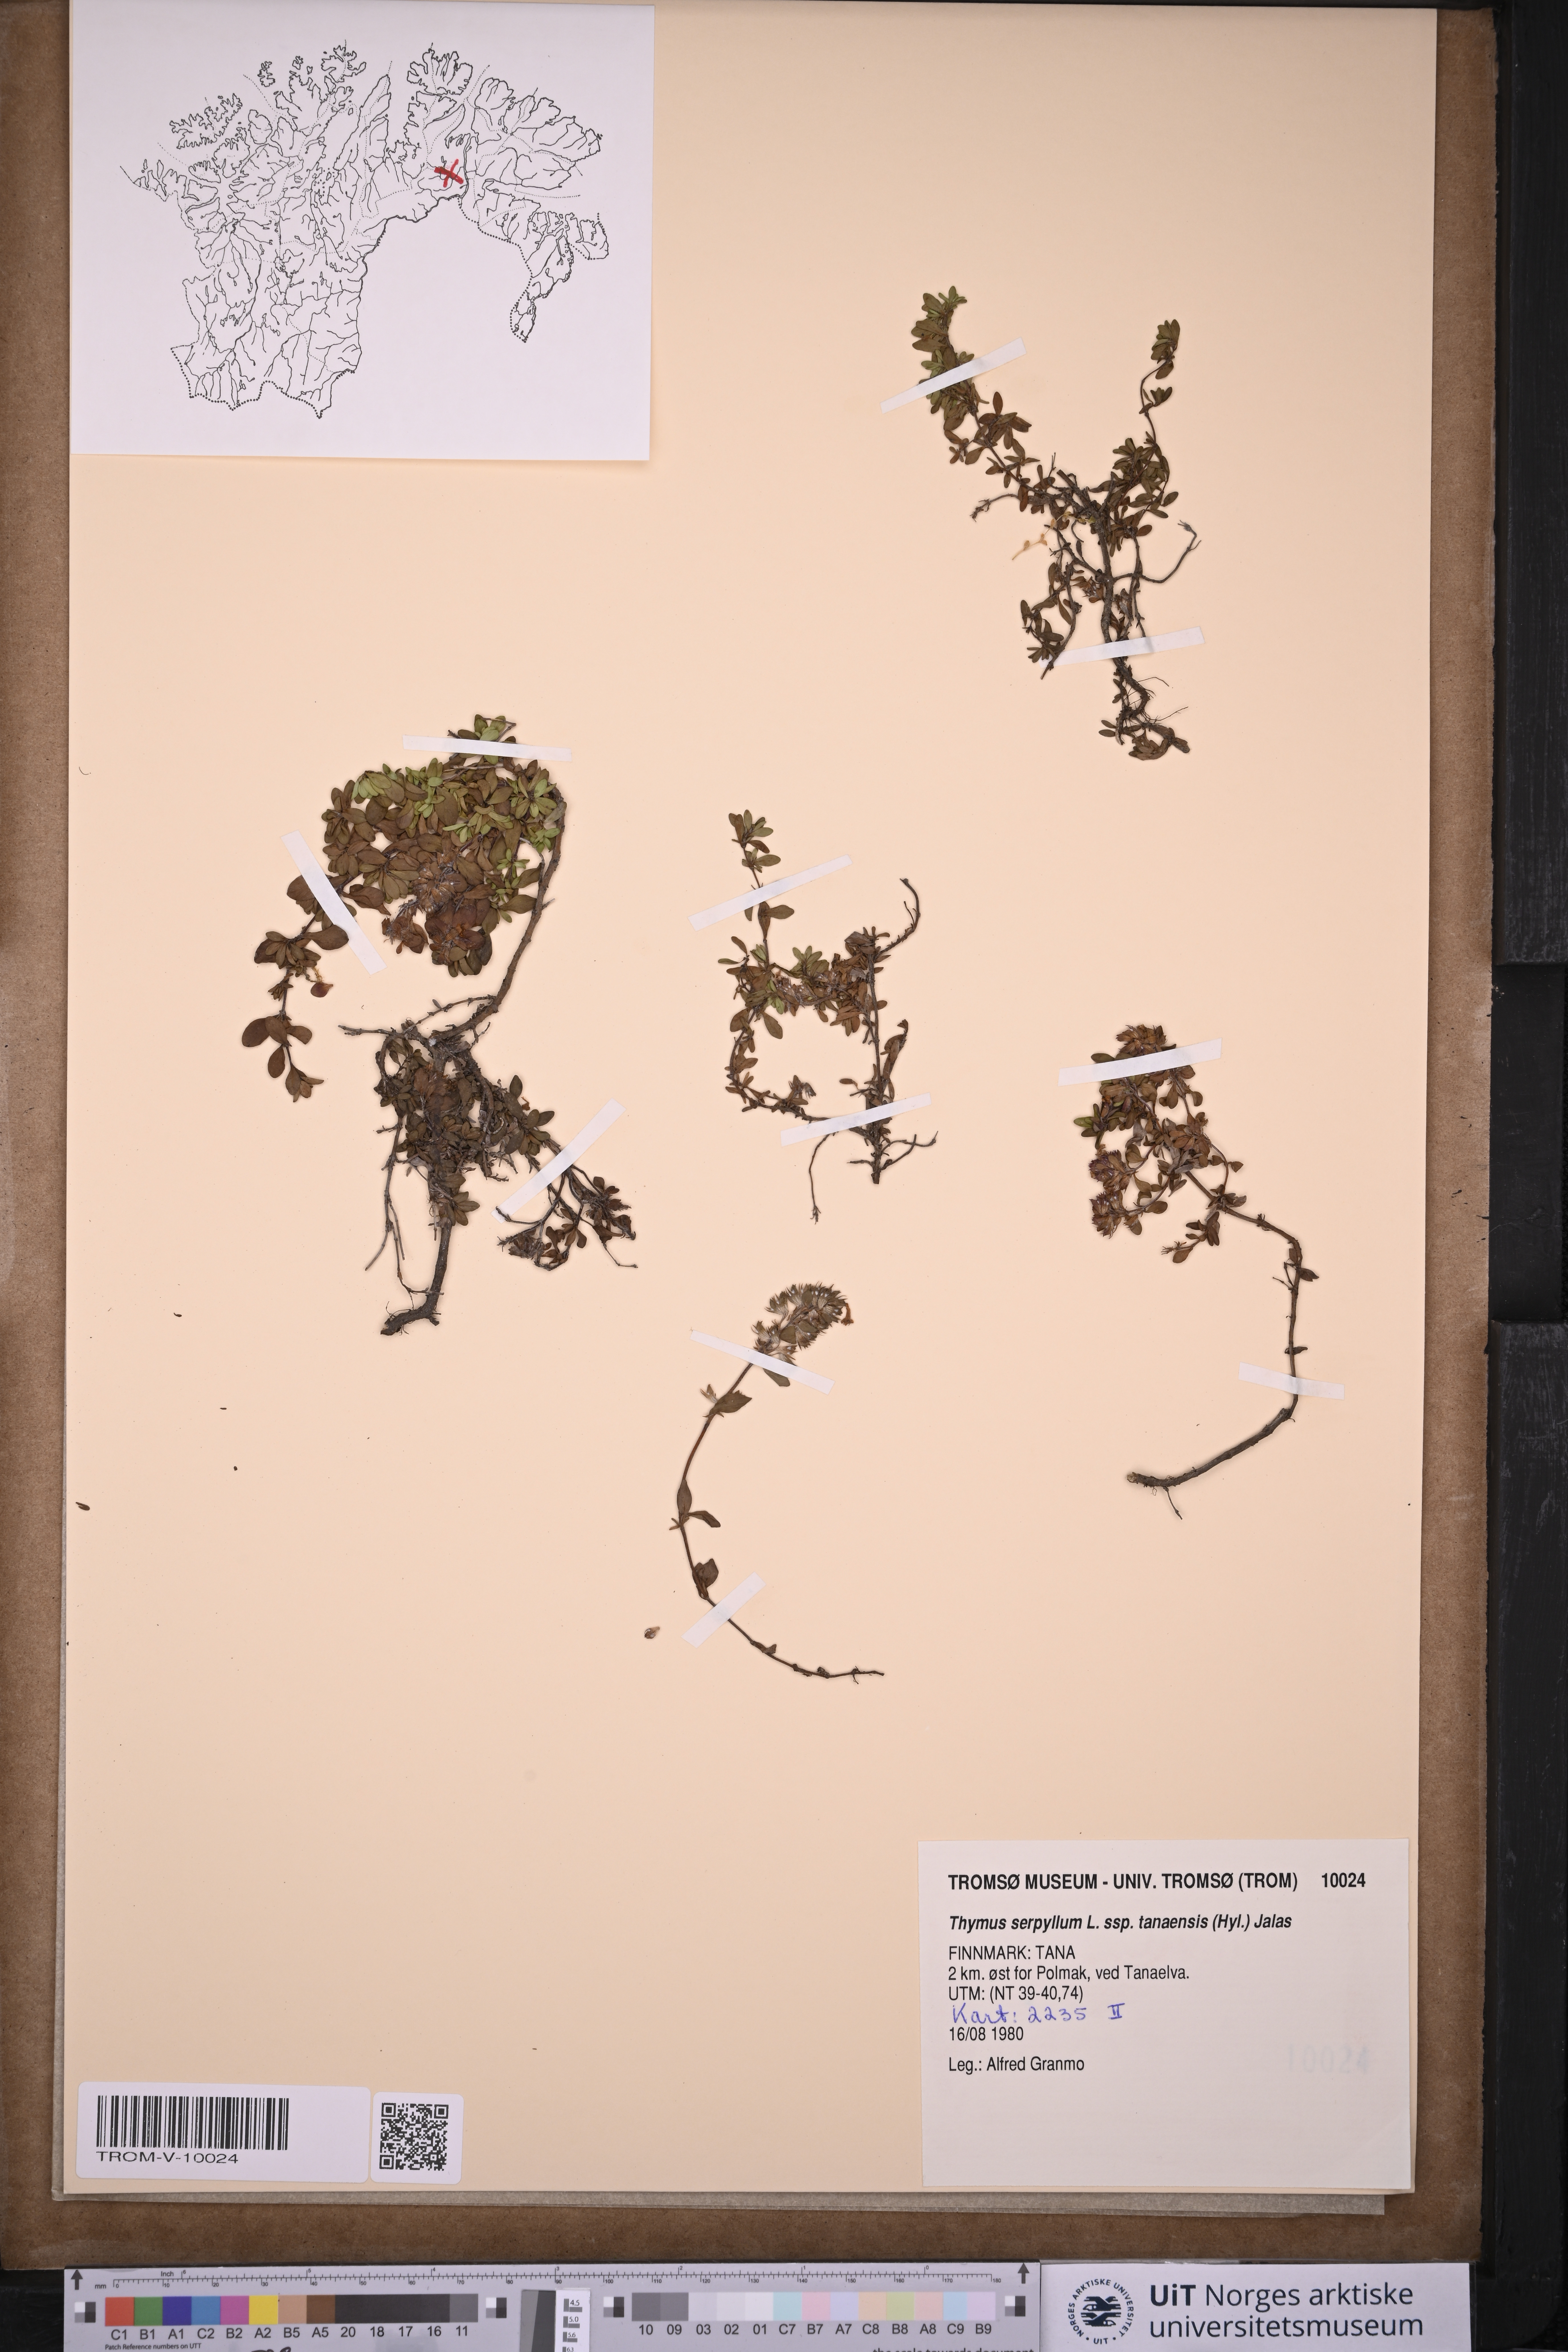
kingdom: Plantae
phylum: Tracheophyta
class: Magnoliopsida
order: Lamiales
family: Lamiaceae
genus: Thymus
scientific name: Thymus serpyllum
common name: Breckland thyme
